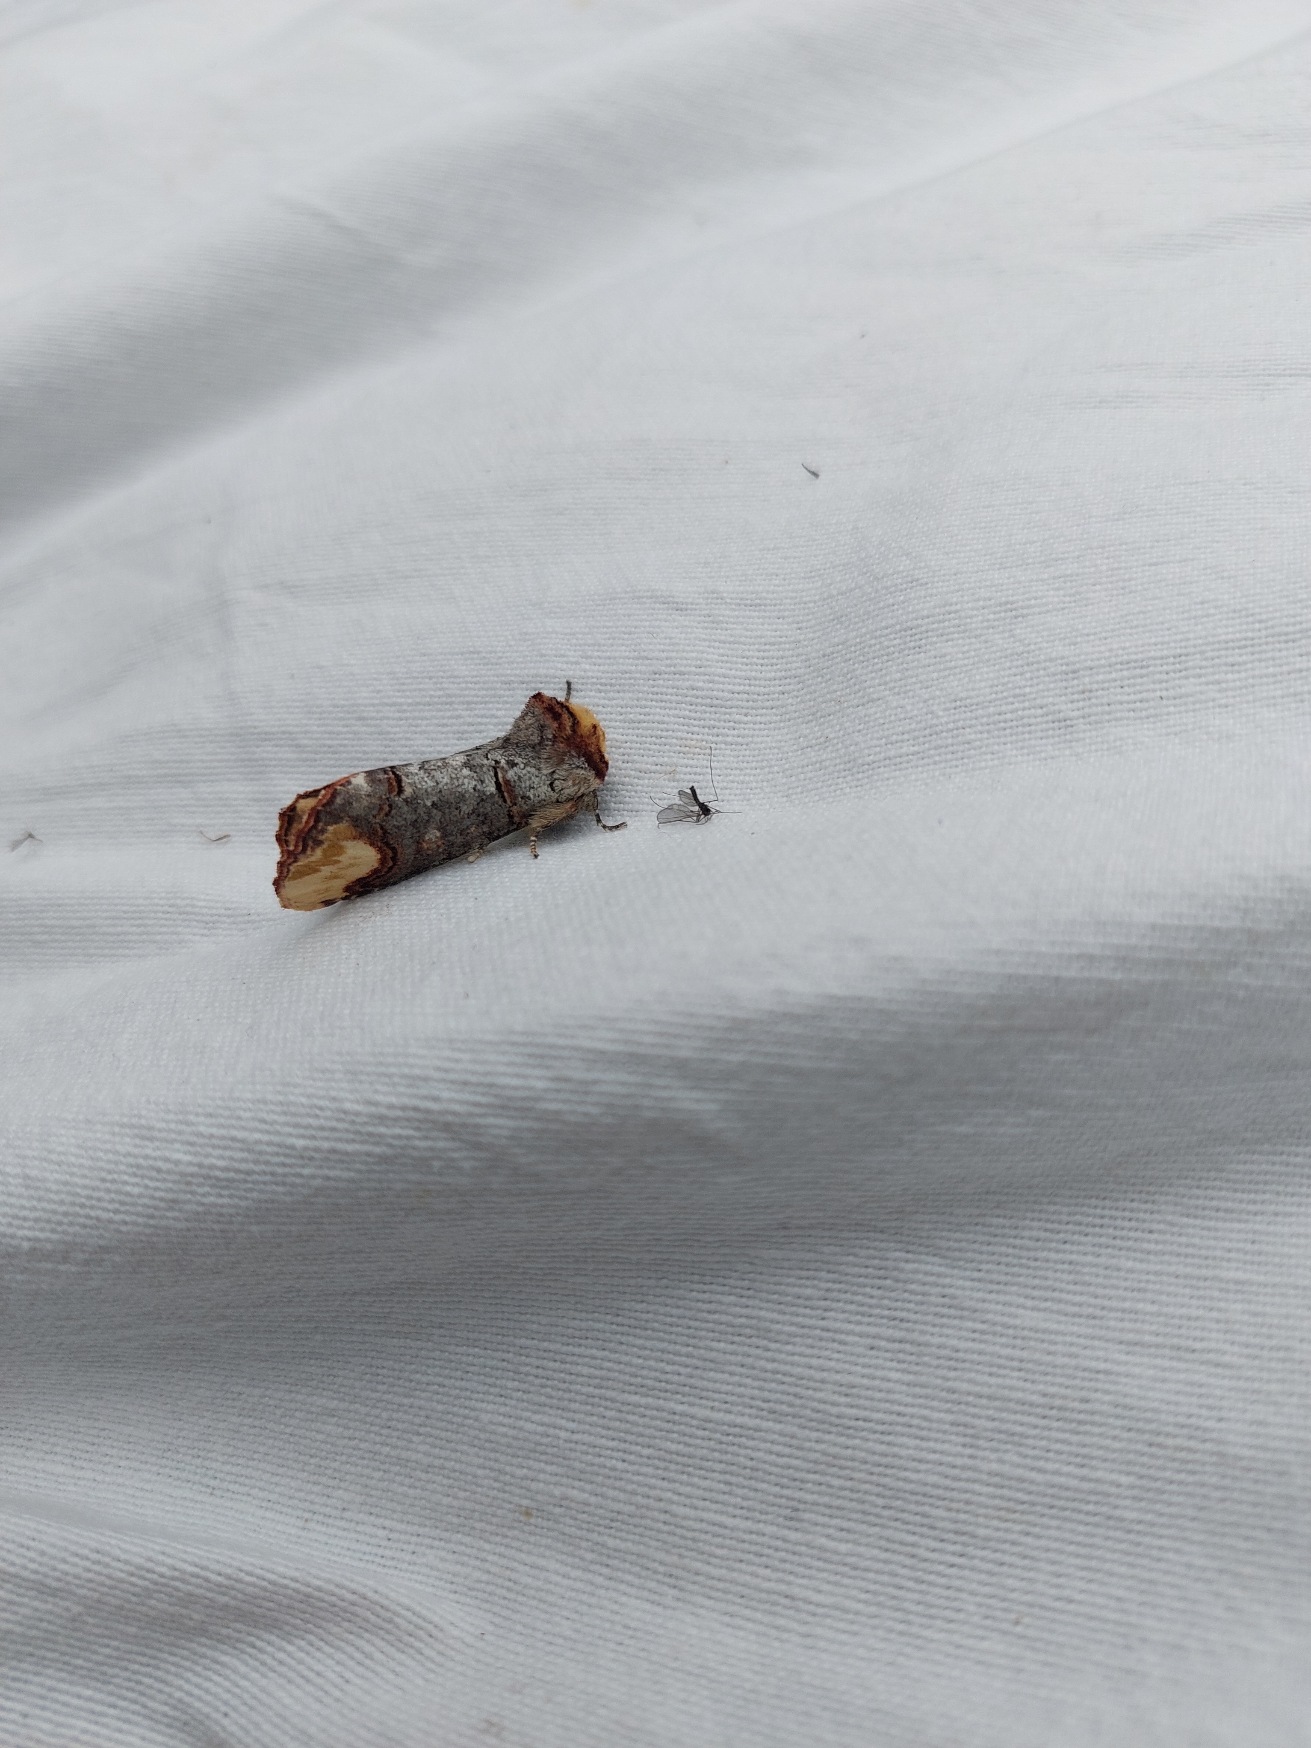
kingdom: Animalia
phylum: Arthropoda
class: Insecta
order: Lepidoptera
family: Notodontidae
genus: Phalera
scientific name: Phalera bucephala
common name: Måneplet
